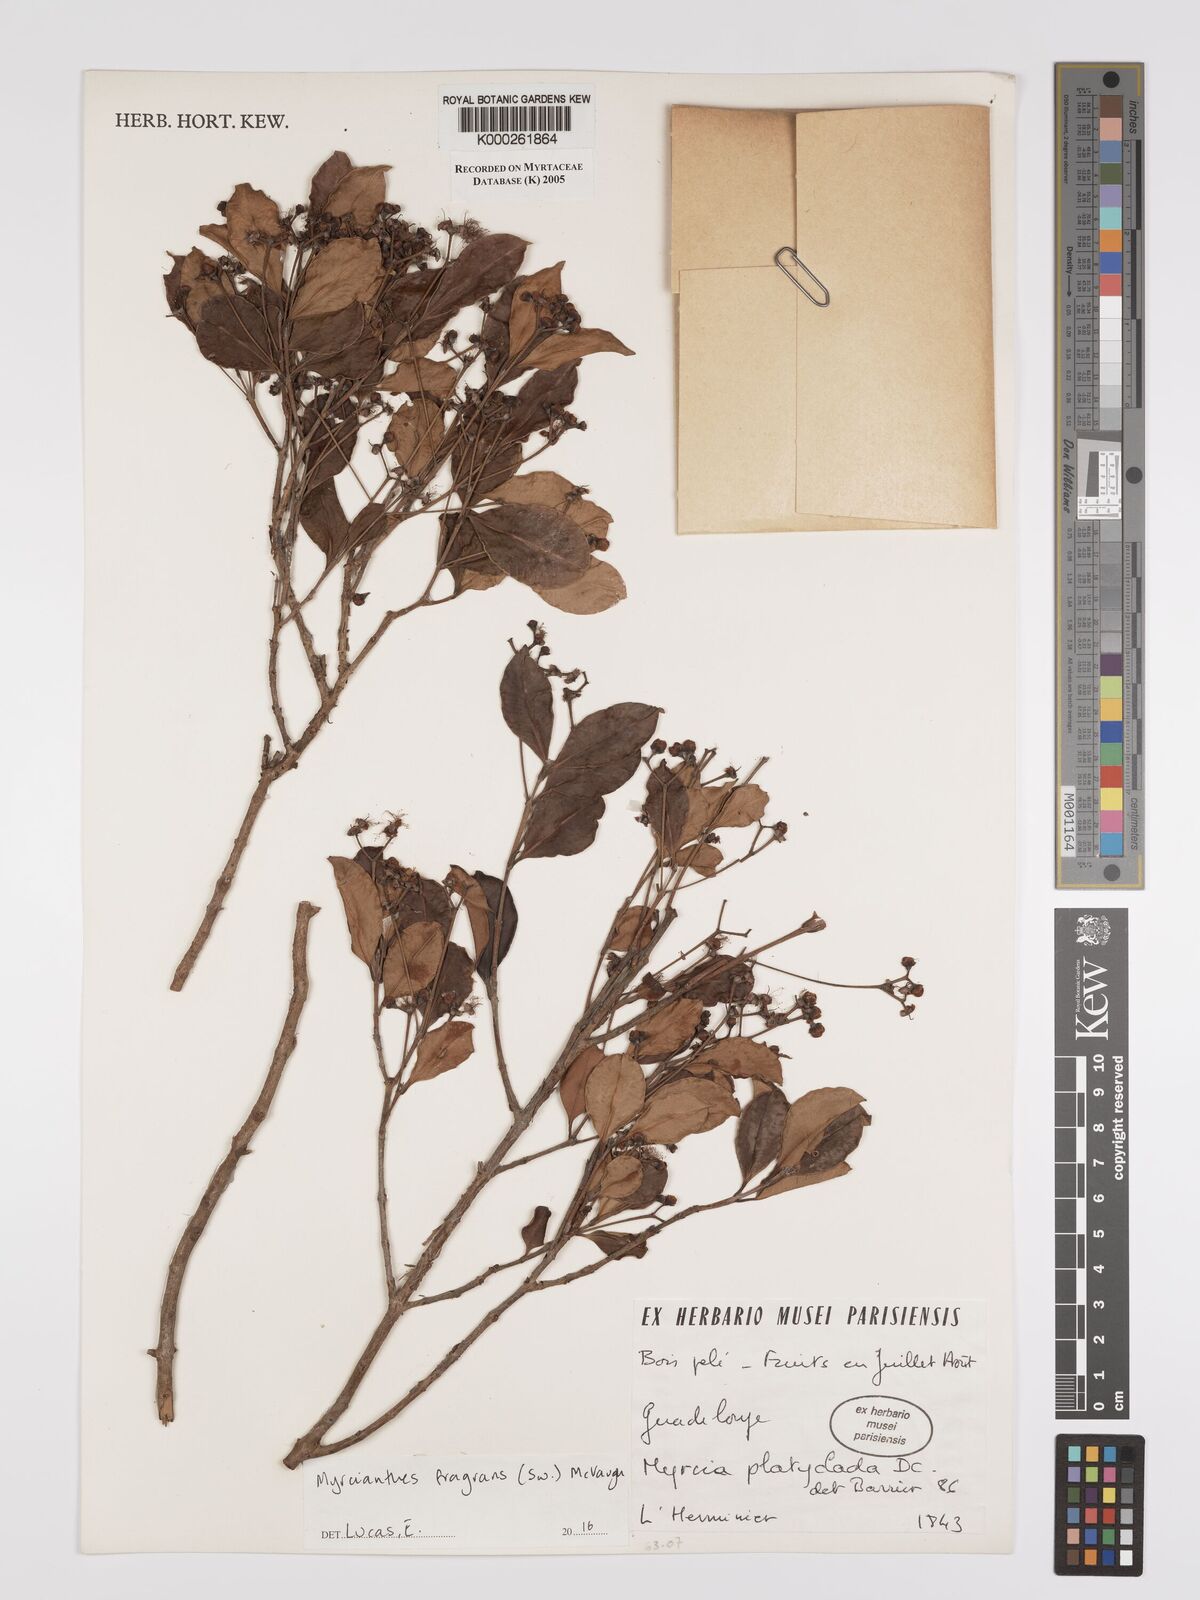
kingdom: Plantae
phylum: Tracheophyta
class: Magnoliopsida
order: Myrtales
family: Myrtaceae
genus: Blepharocalyx
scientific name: Blepharocalyx salicifolius
